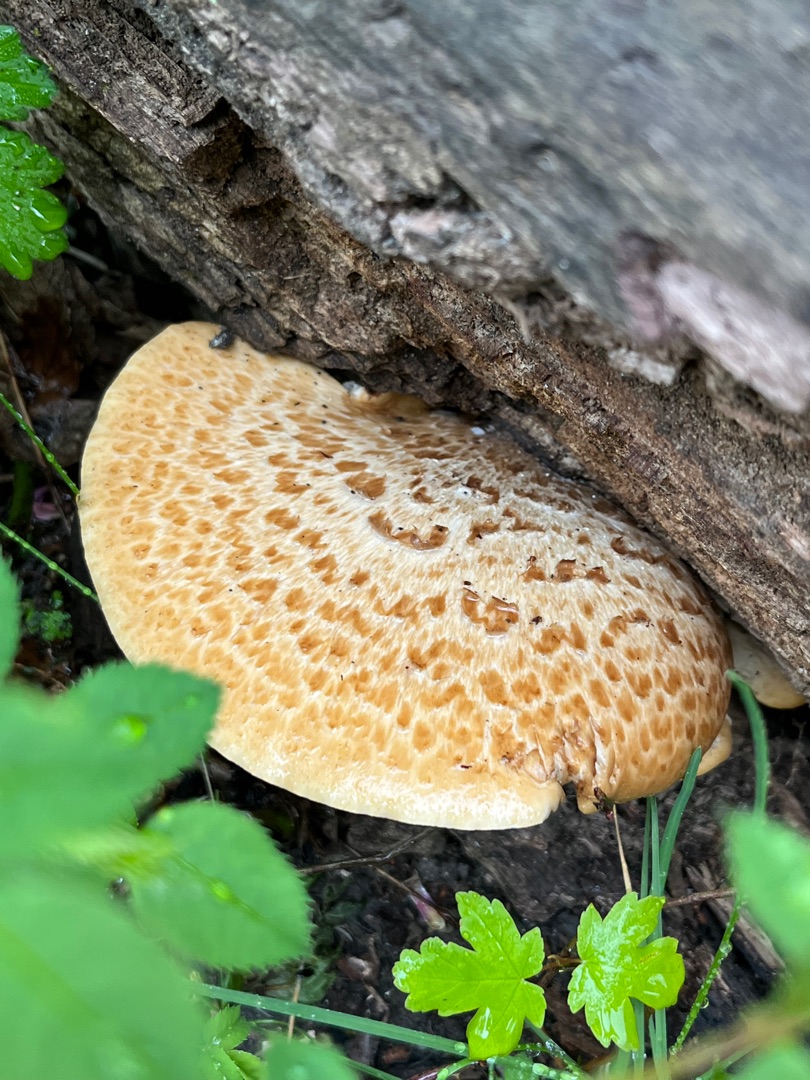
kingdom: Fungi
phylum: Basidiomycota
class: Agaricomycetes
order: Polyporales
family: Polyporaceae
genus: Cerioporus
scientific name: Cerioporus squamosus
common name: Skællet stilkporesvamp
